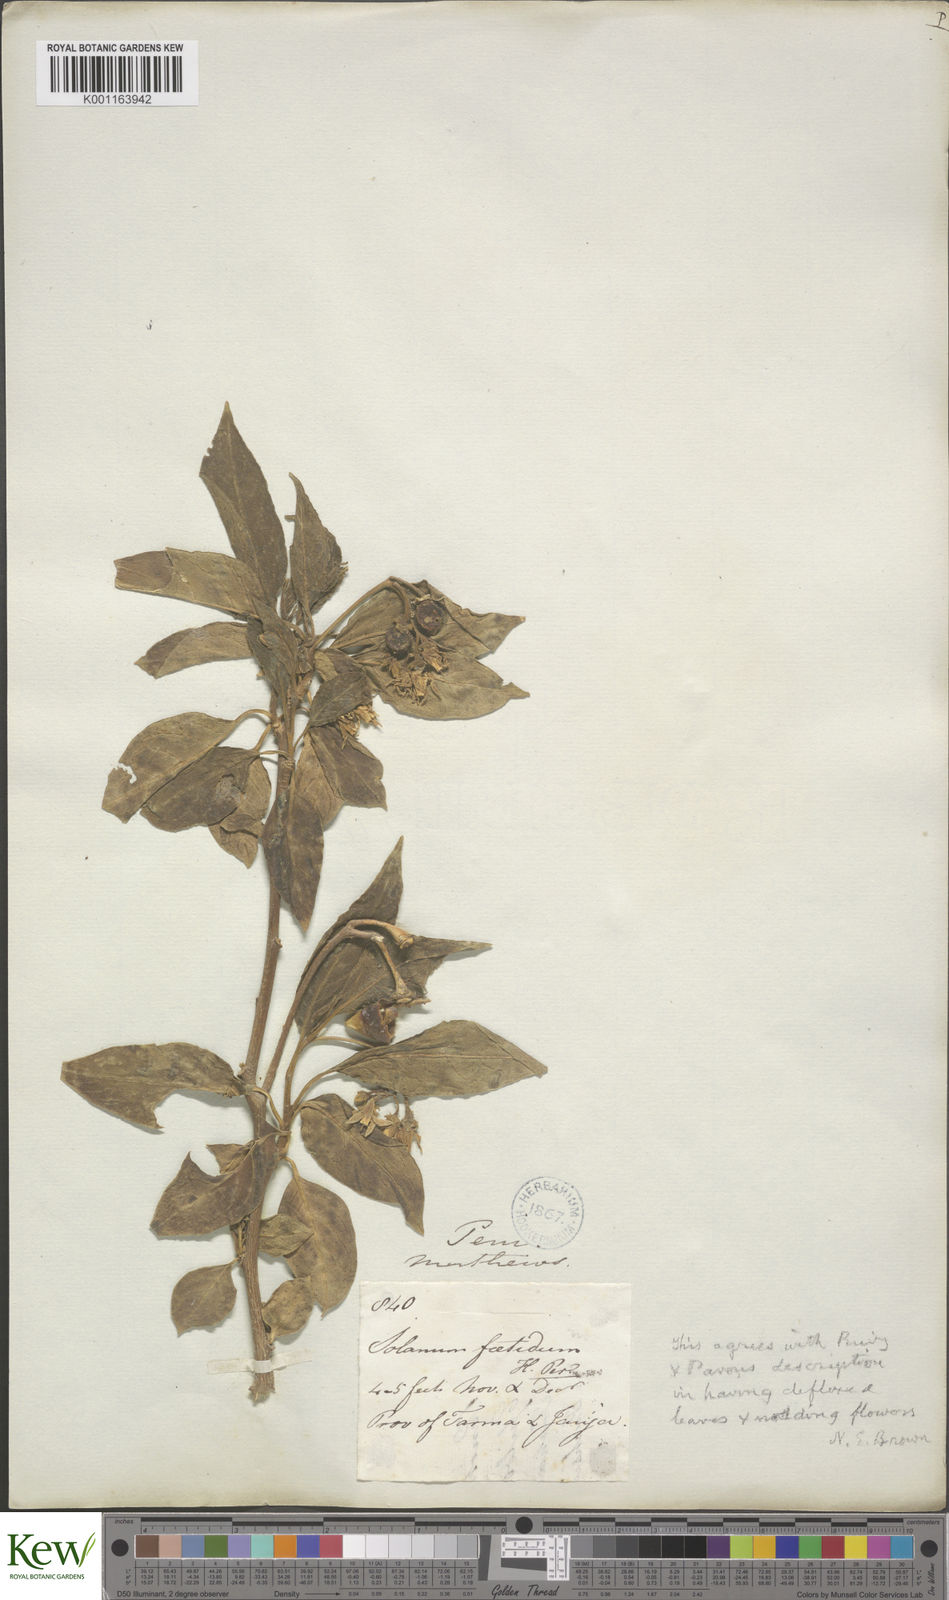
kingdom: Plantae
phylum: Tracheophyta
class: Magnoliopsida
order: Solanales
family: Solanaceae
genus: Solanum
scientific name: Solanum
